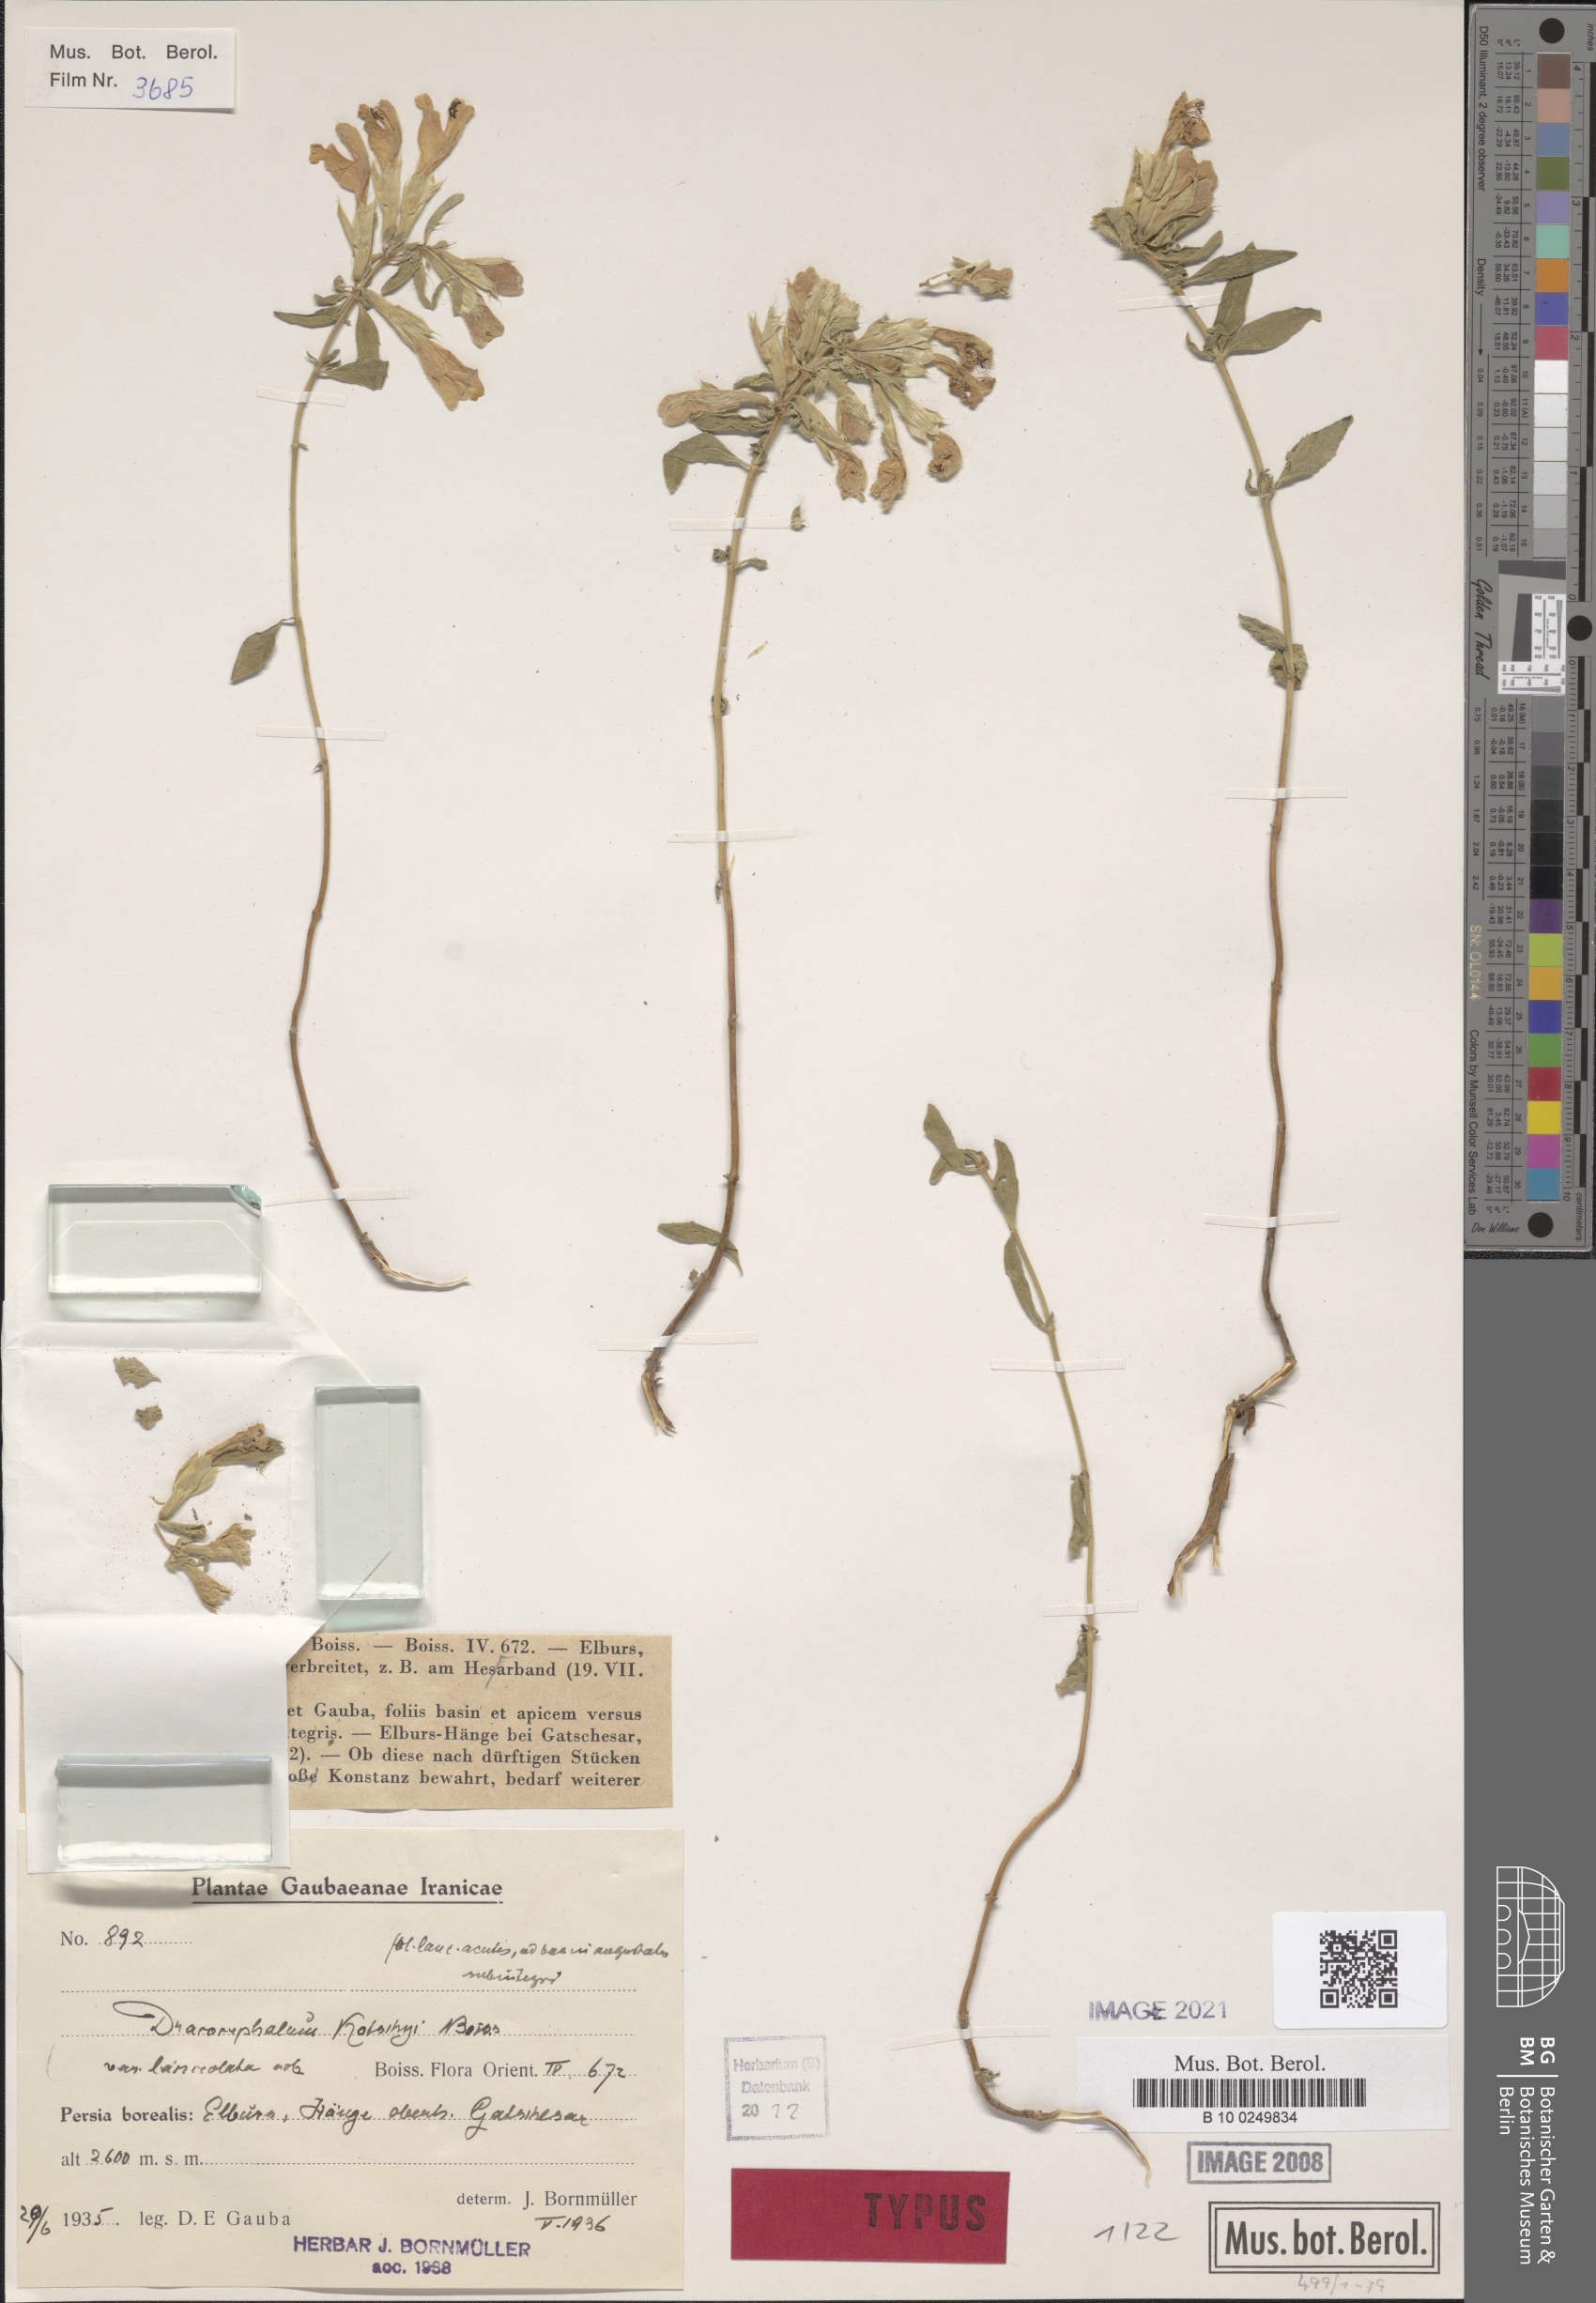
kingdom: Plantae
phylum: Tracheophyta
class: Magnoliopsida
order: Lamiales
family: Lamiaceae
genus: Dracocephalum
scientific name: Dracocephalum kotschyi
